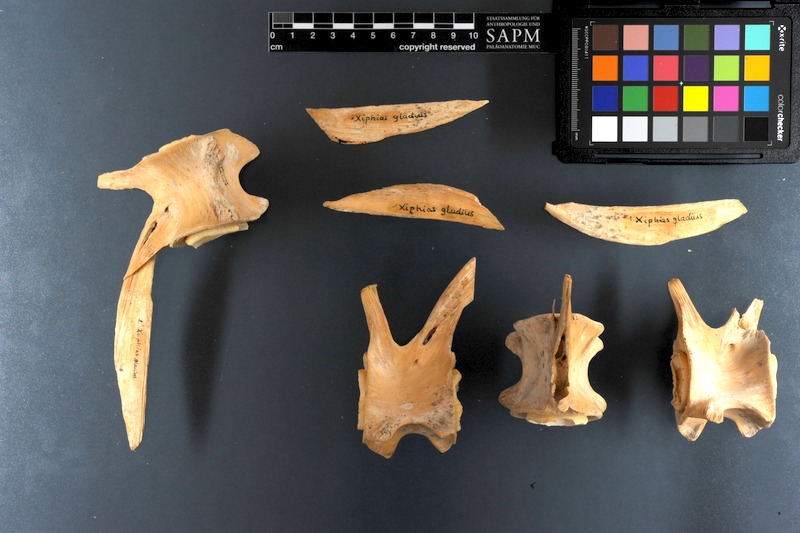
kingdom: Animalia
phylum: Chordata
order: Perciformes
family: Xiphiidae
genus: Xiphias
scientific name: Xiphias gladius
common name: Swordfish
